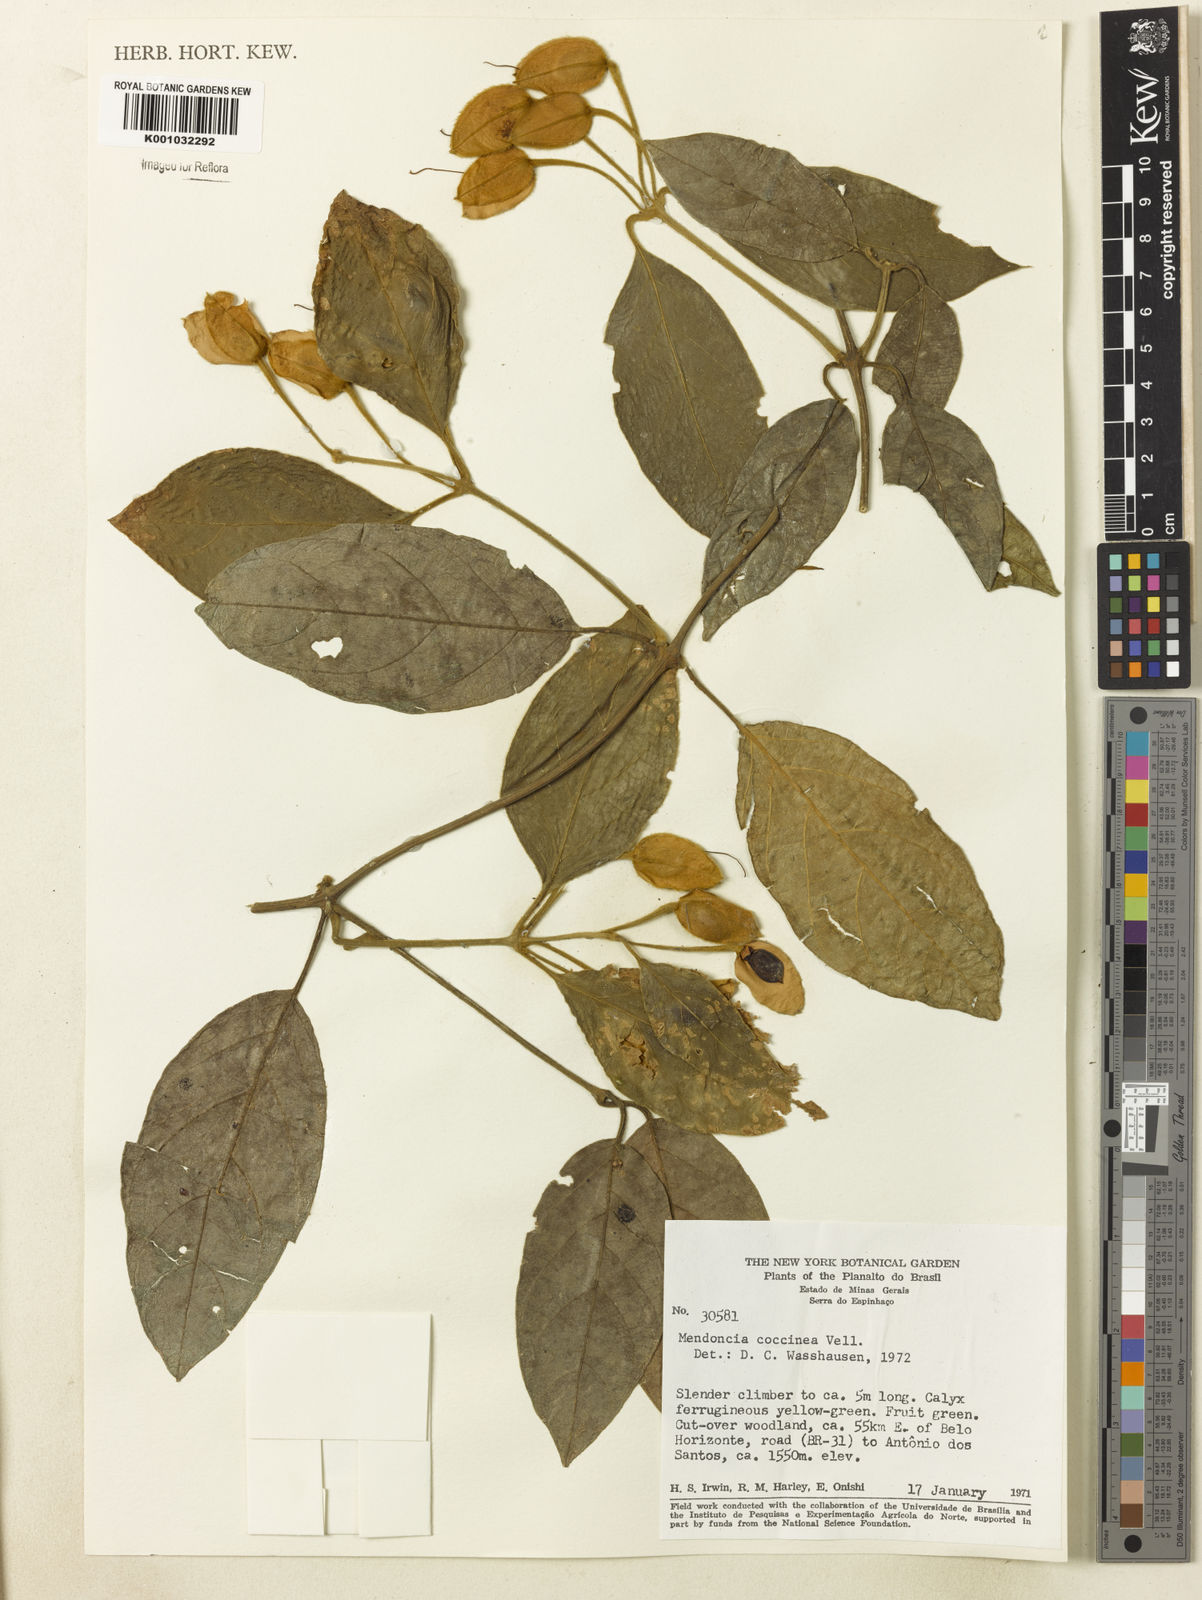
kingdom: Plantae
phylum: Tracheophyta
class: Magnoliopsida
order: Lamiales
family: Acanthaceae
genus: Mendoncia
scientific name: Mendoncia coccinea
